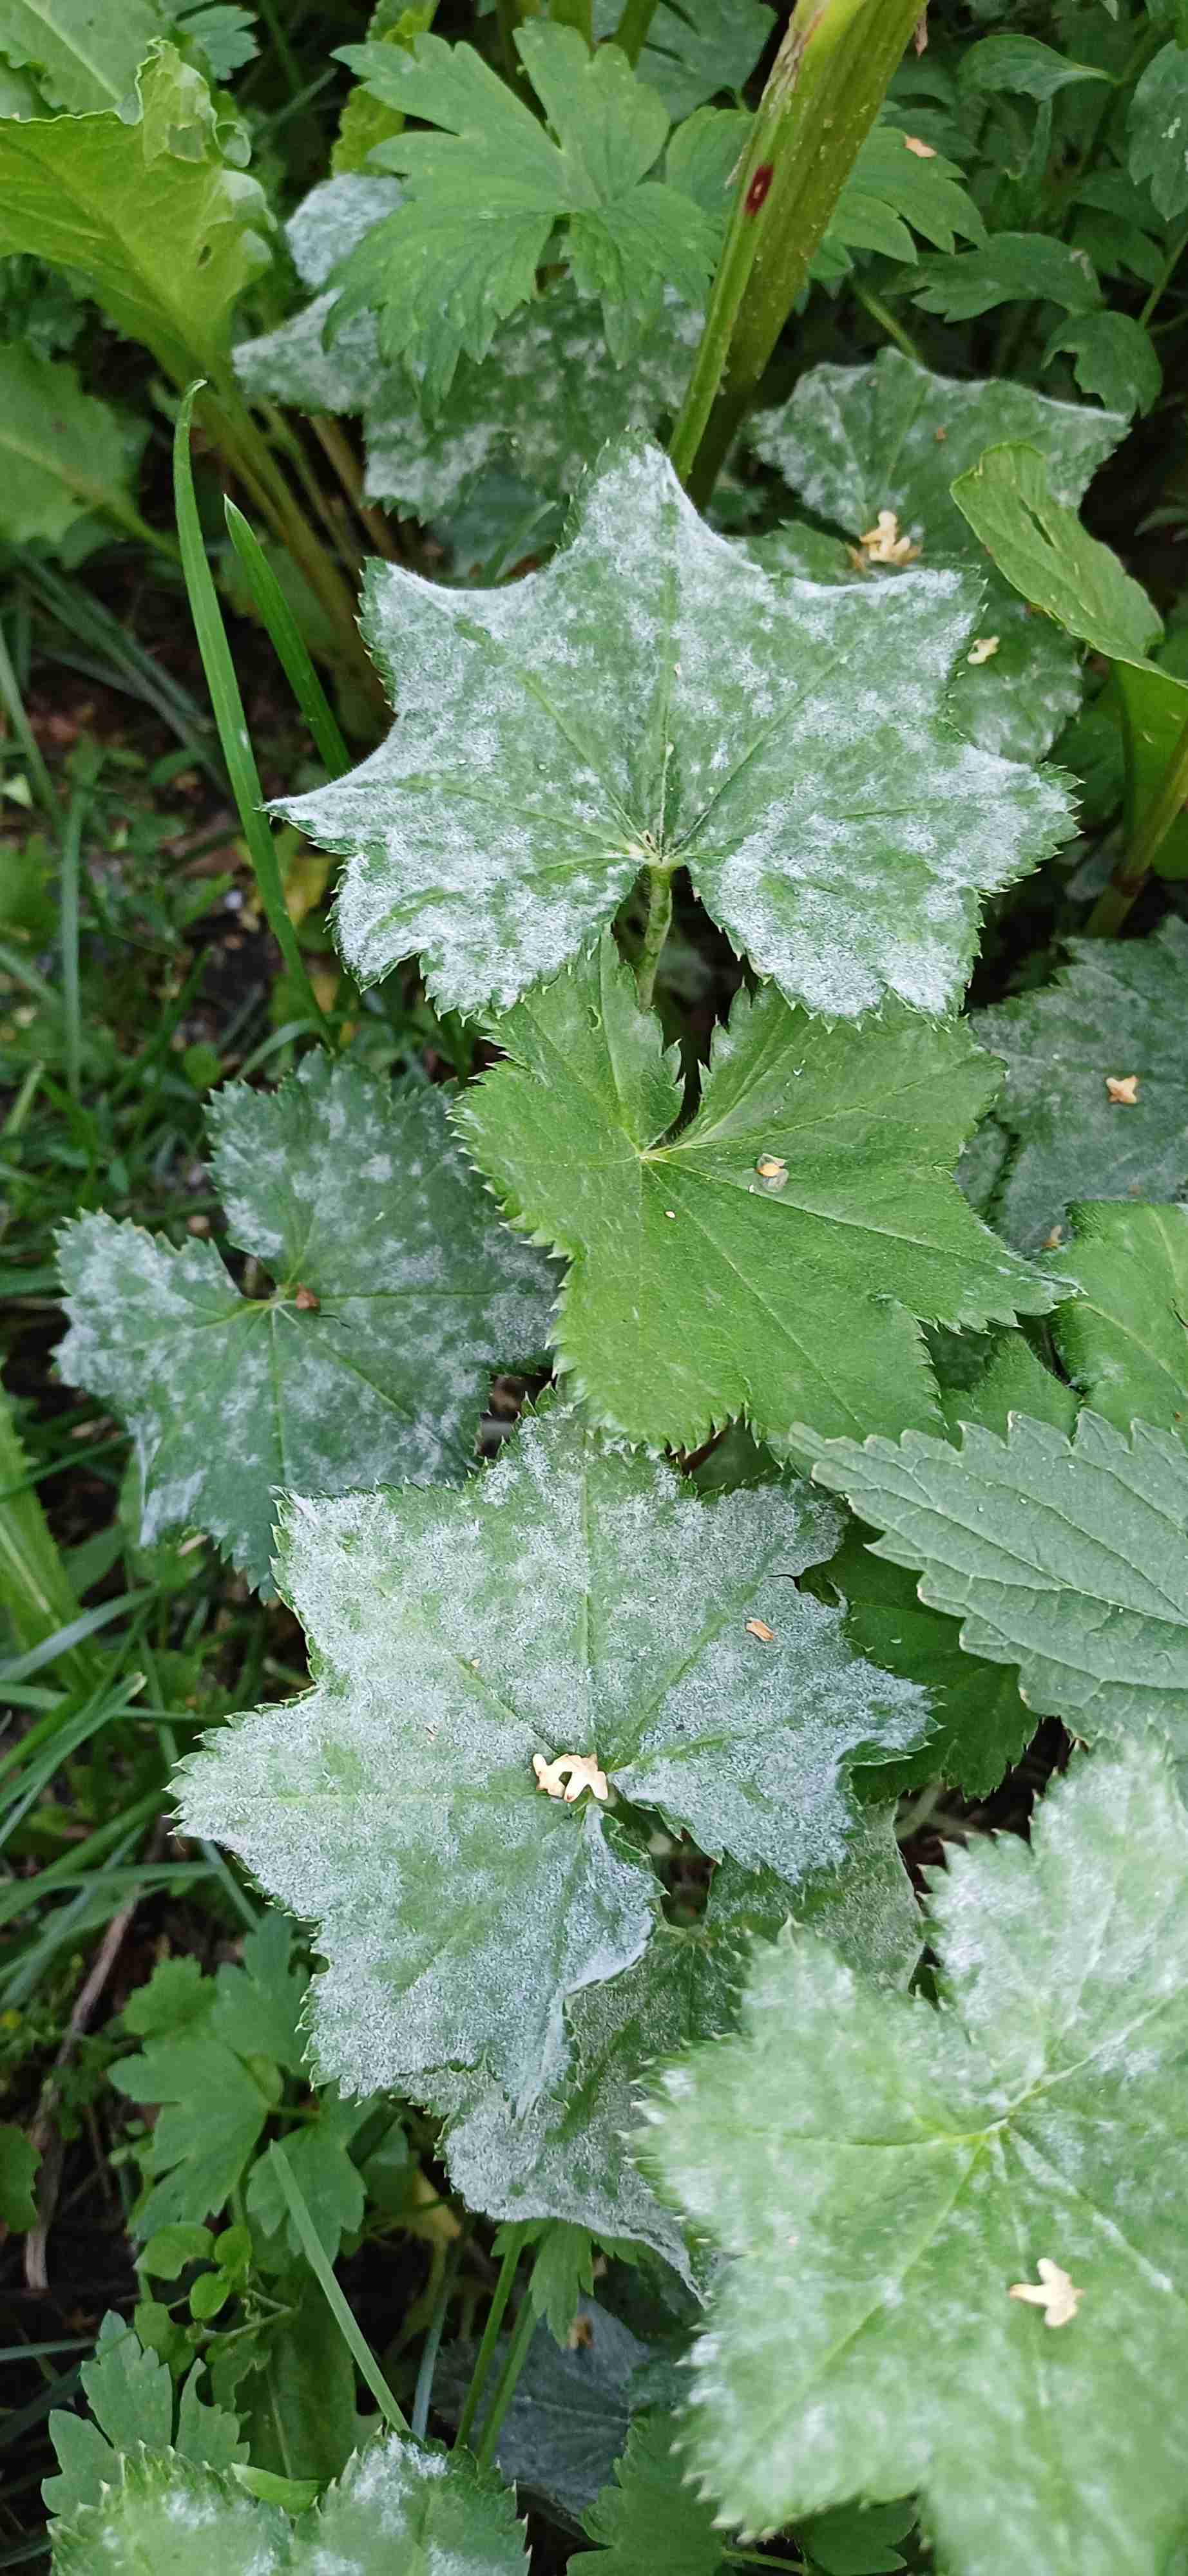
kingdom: Fungi
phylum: Ascomycota
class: Leotiomycetes
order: Helotiales
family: Erysiphaceae
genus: Podosphaera
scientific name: Podosphaera aphanis
